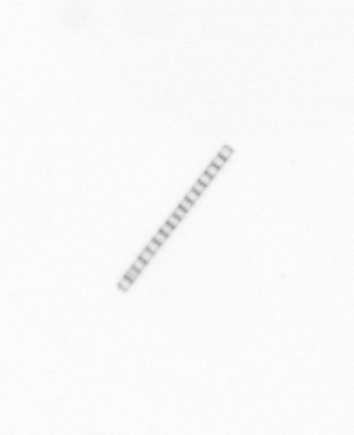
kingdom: Chromista
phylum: Ochrophyta
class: Bacillariophyceae
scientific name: Bacillariophyceae
